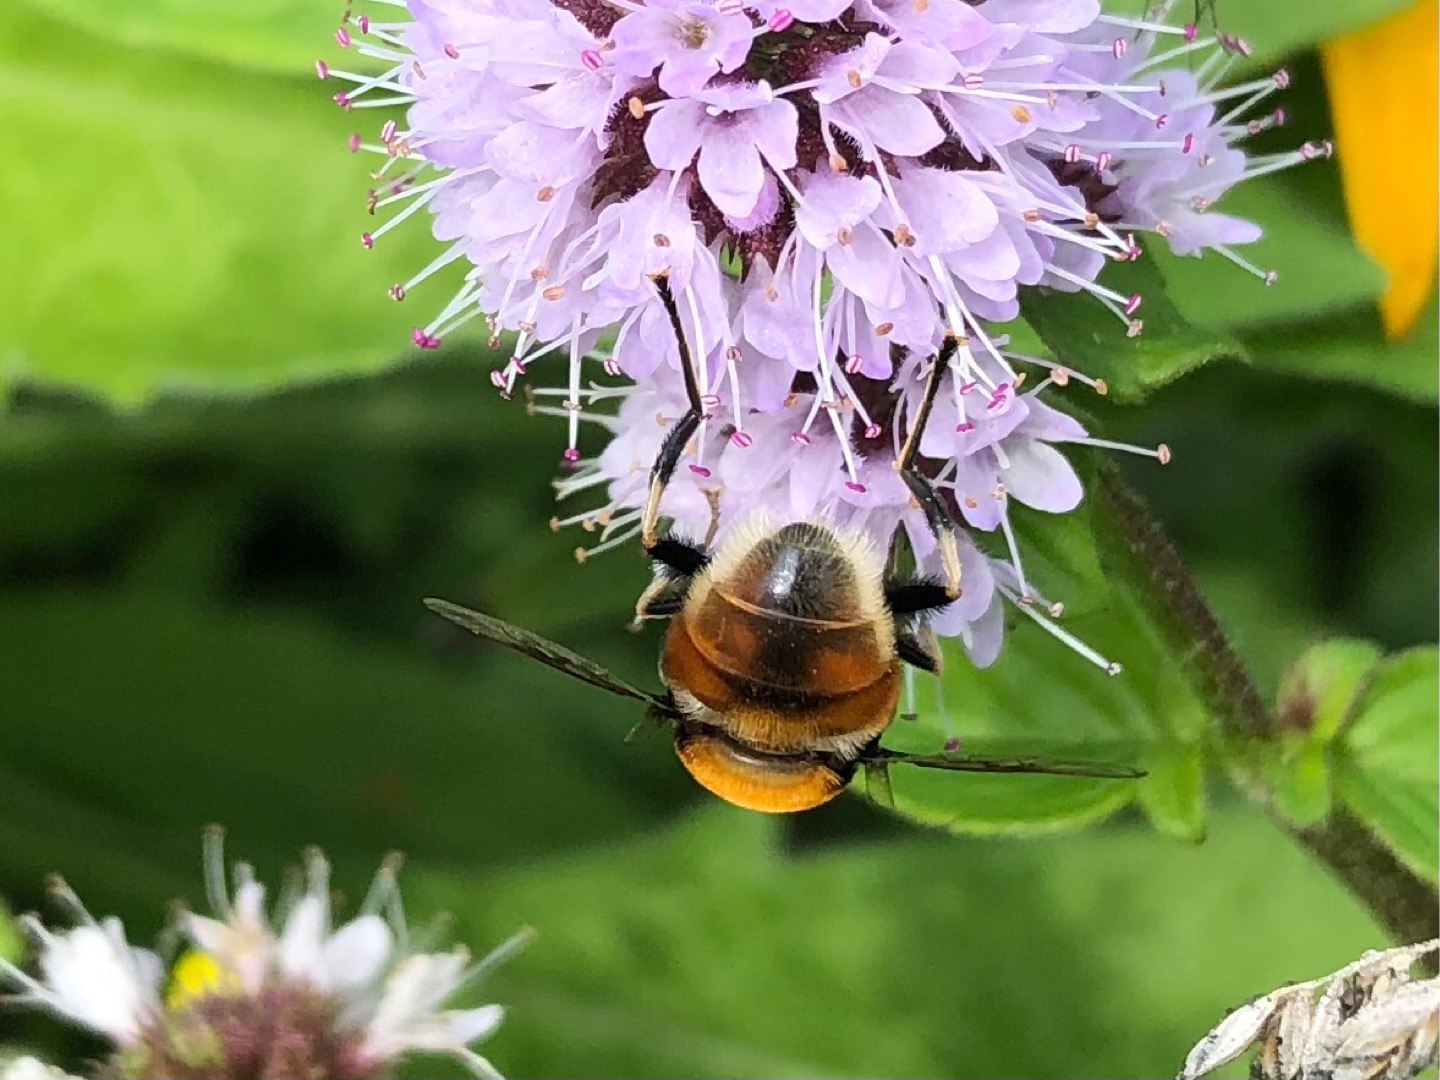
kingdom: Animalia
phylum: Arthropoda
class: Insecta
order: Diptera
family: Syrphidae
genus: Eristalis
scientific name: Eristalis intricaria
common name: Håret dyndflue
